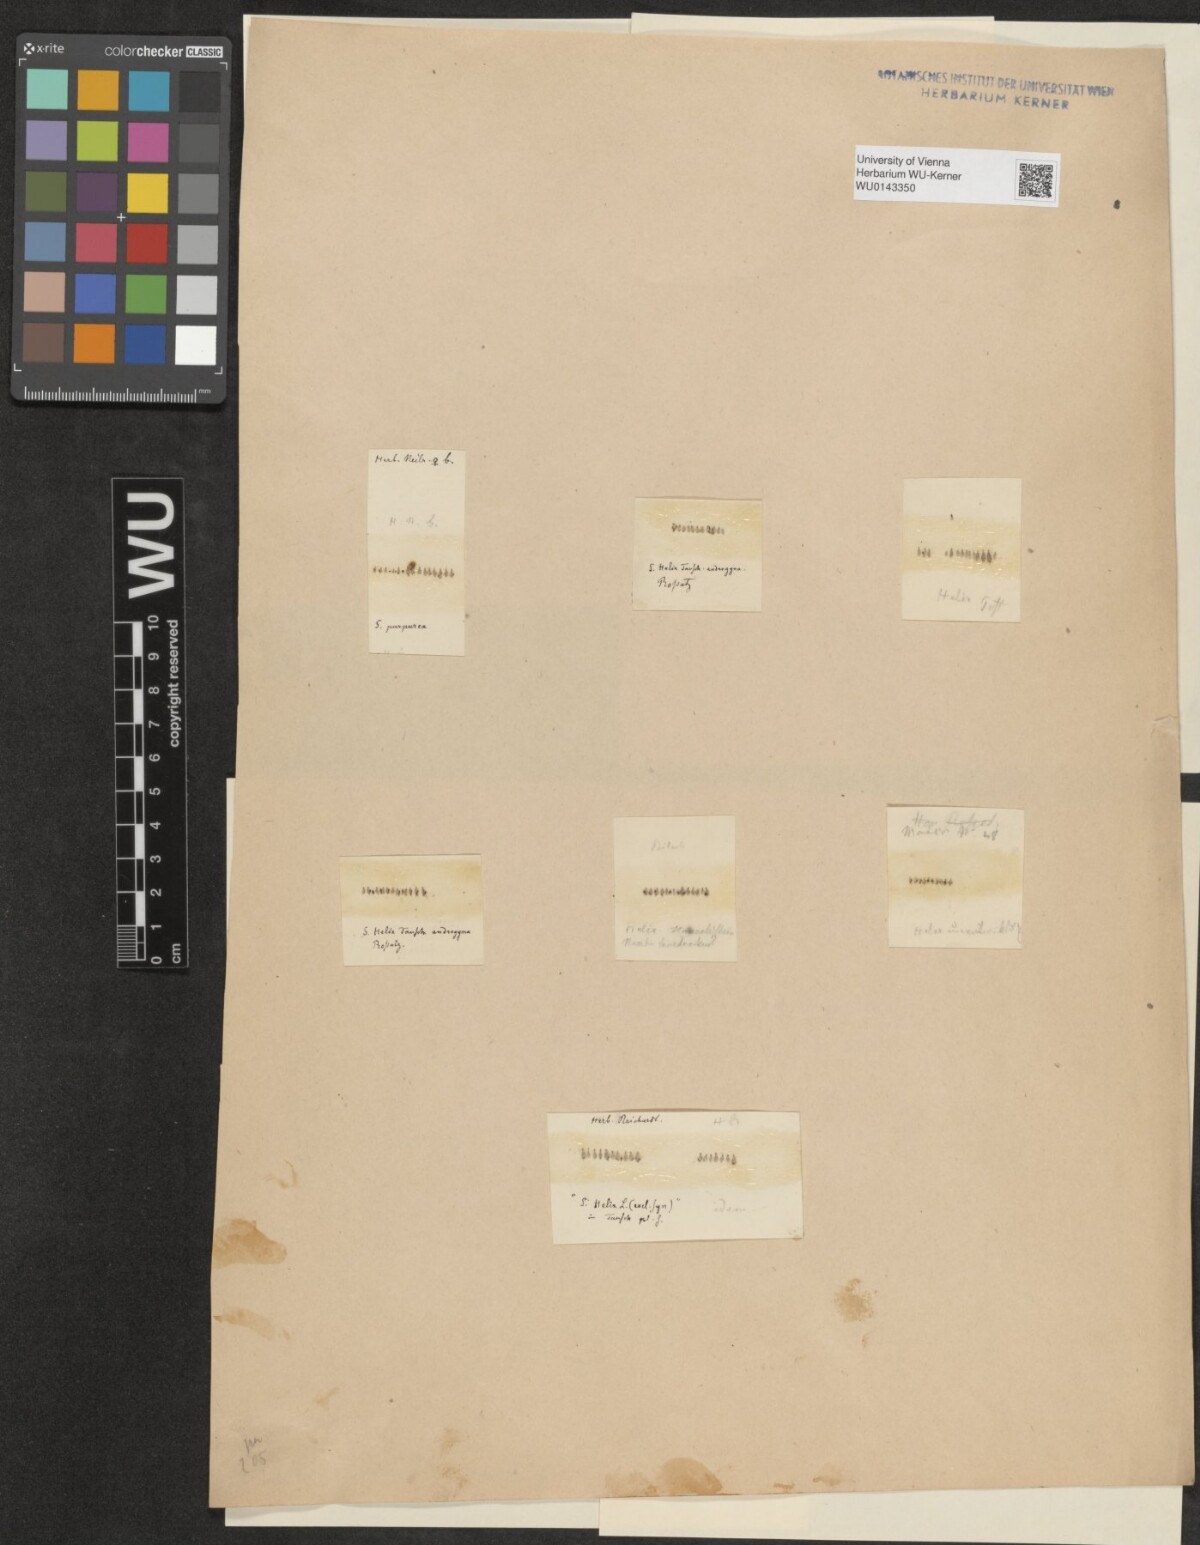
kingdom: Plantae
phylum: Tracheophyta
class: Magnoliopsida
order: Malpighiales
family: Salicaceae
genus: Salix
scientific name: Salix purpurea
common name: Purple willow
